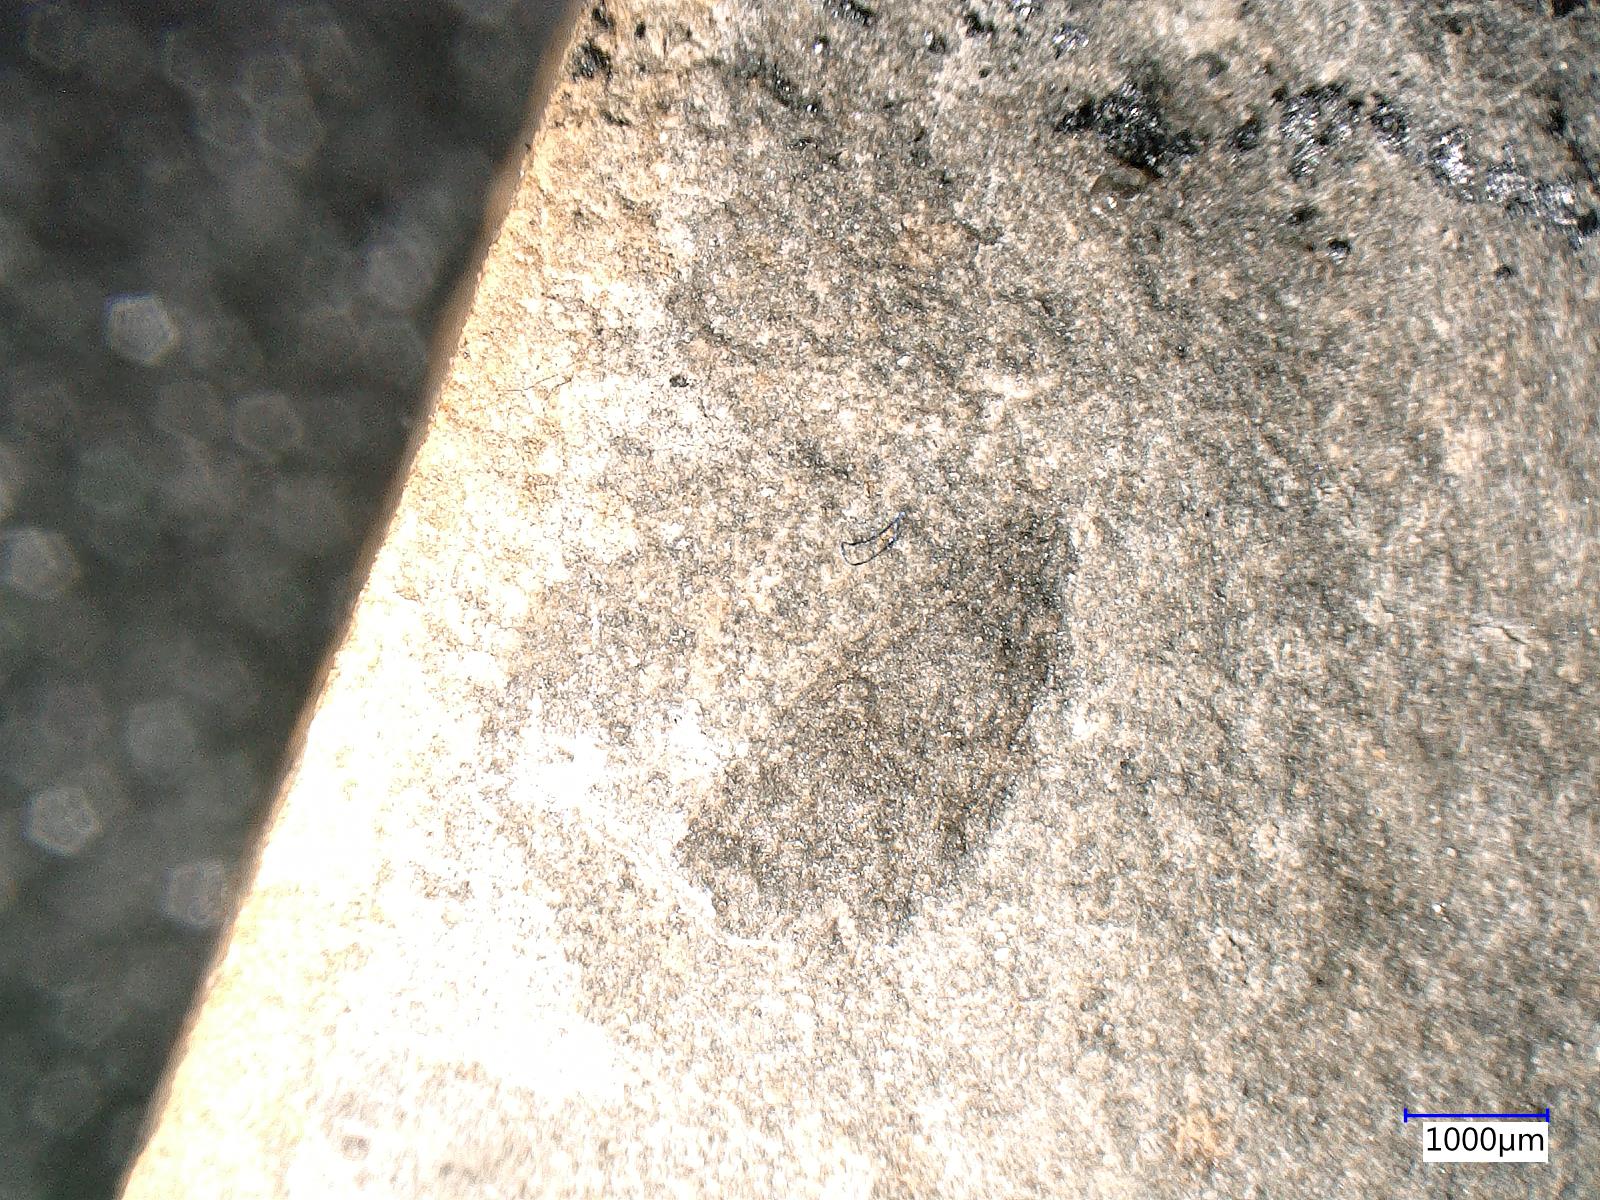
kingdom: Animalia
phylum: Arthropoda
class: Insecta
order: Diptera
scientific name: Diptera
